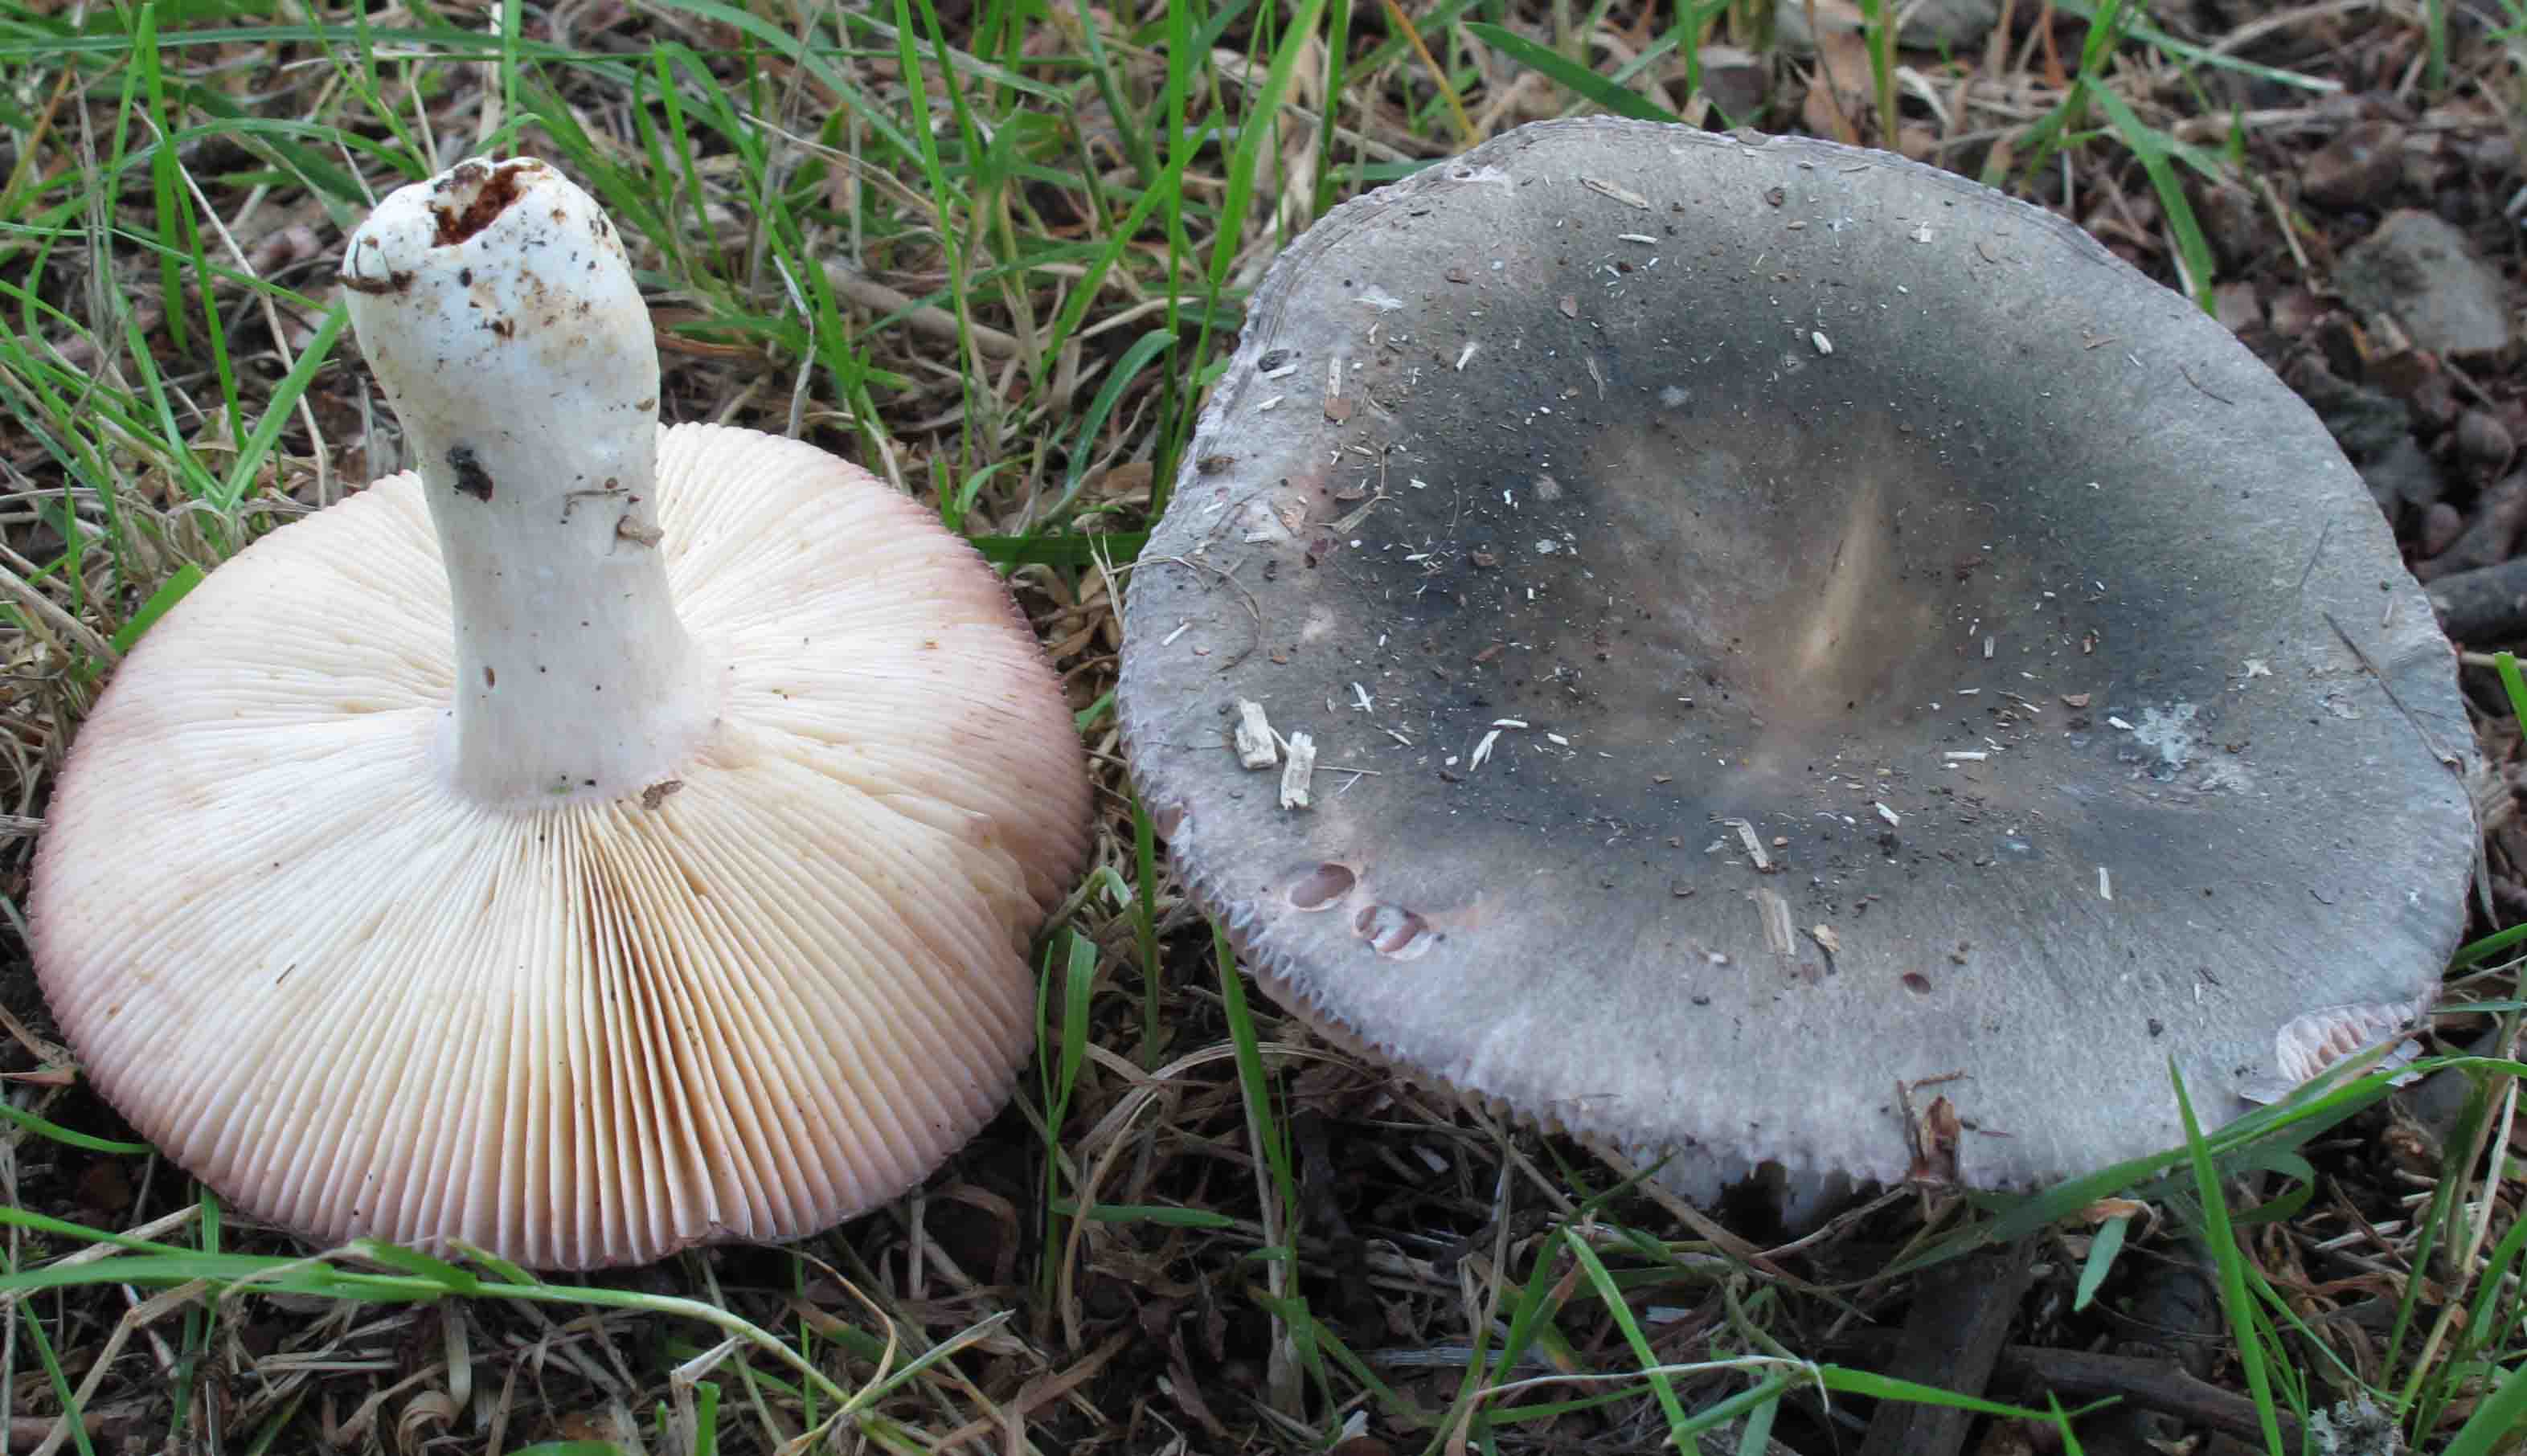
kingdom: Fungi
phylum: Basidiomycota
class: Agaricomycetes
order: Russulales
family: Russulaceae
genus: Russula
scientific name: Russula grisea
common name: grålig skørhat
